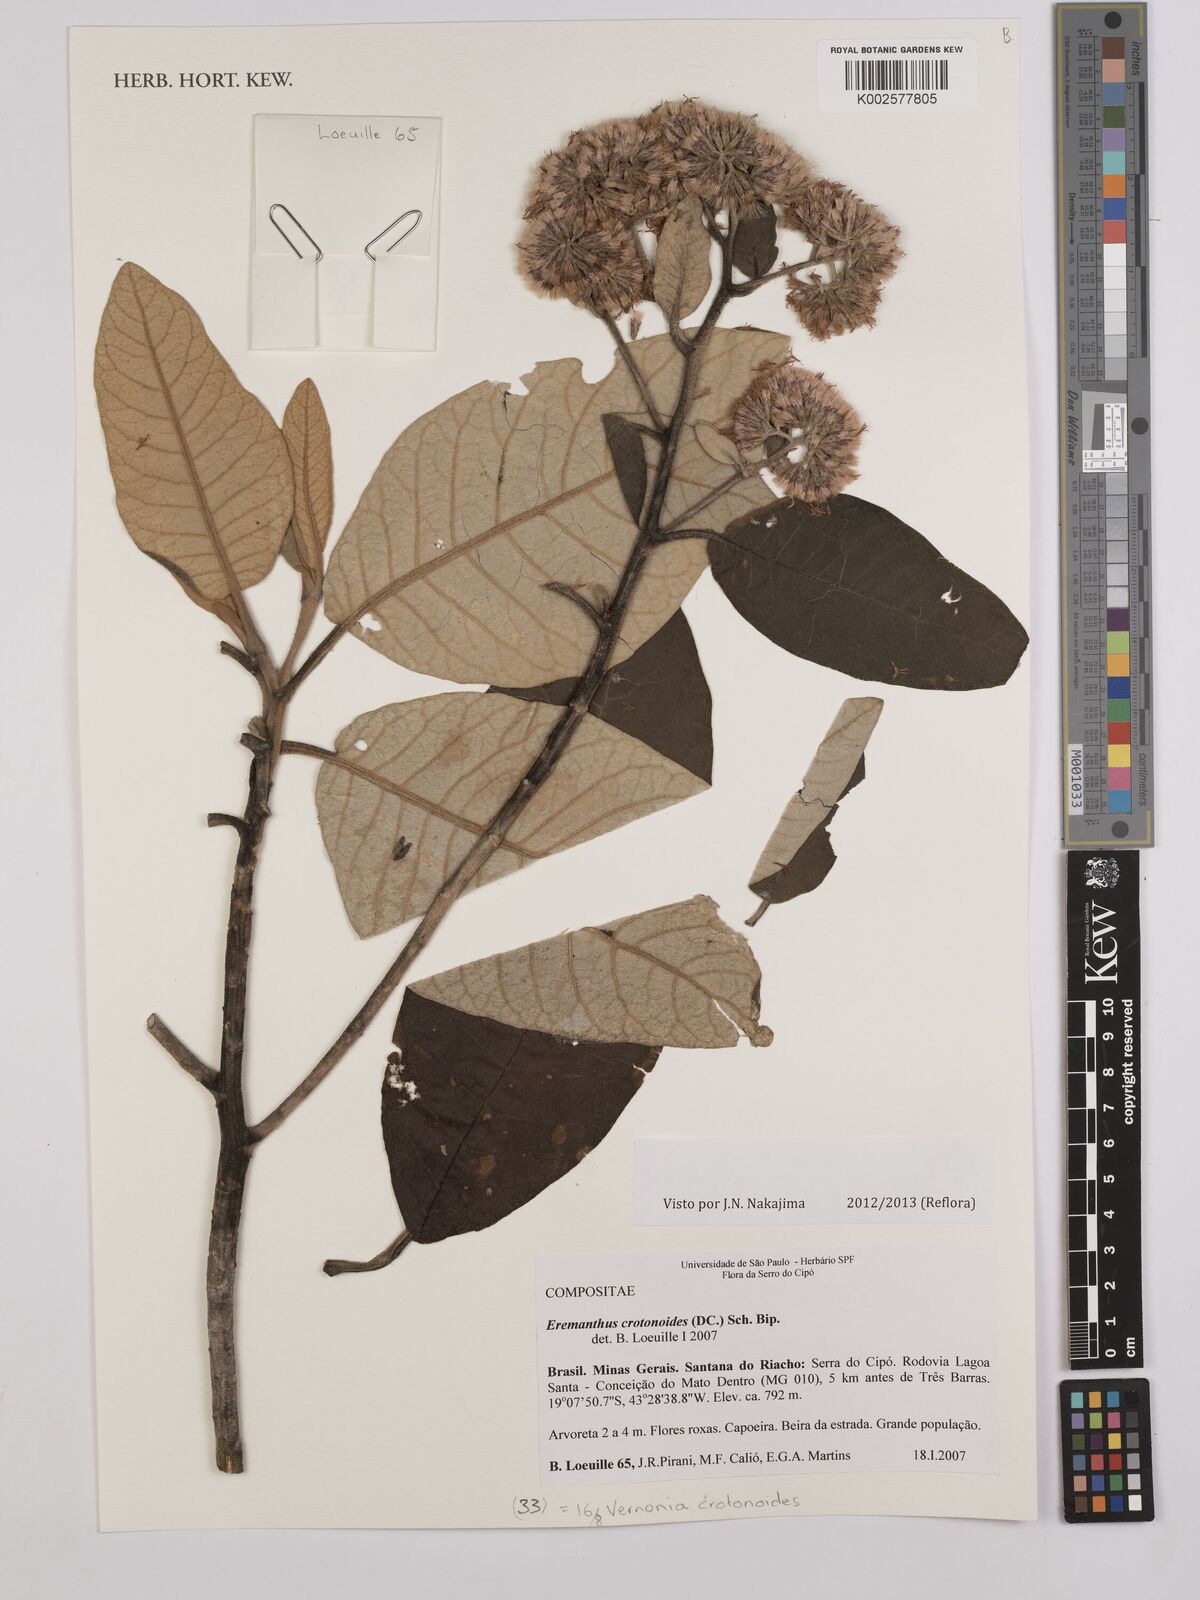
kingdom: Plantae
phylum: Tracheophyta
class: Magnoliopsida
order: Asterales
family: Asteraceae
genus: Eremanthus
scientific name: Eremanthus crotonoides
